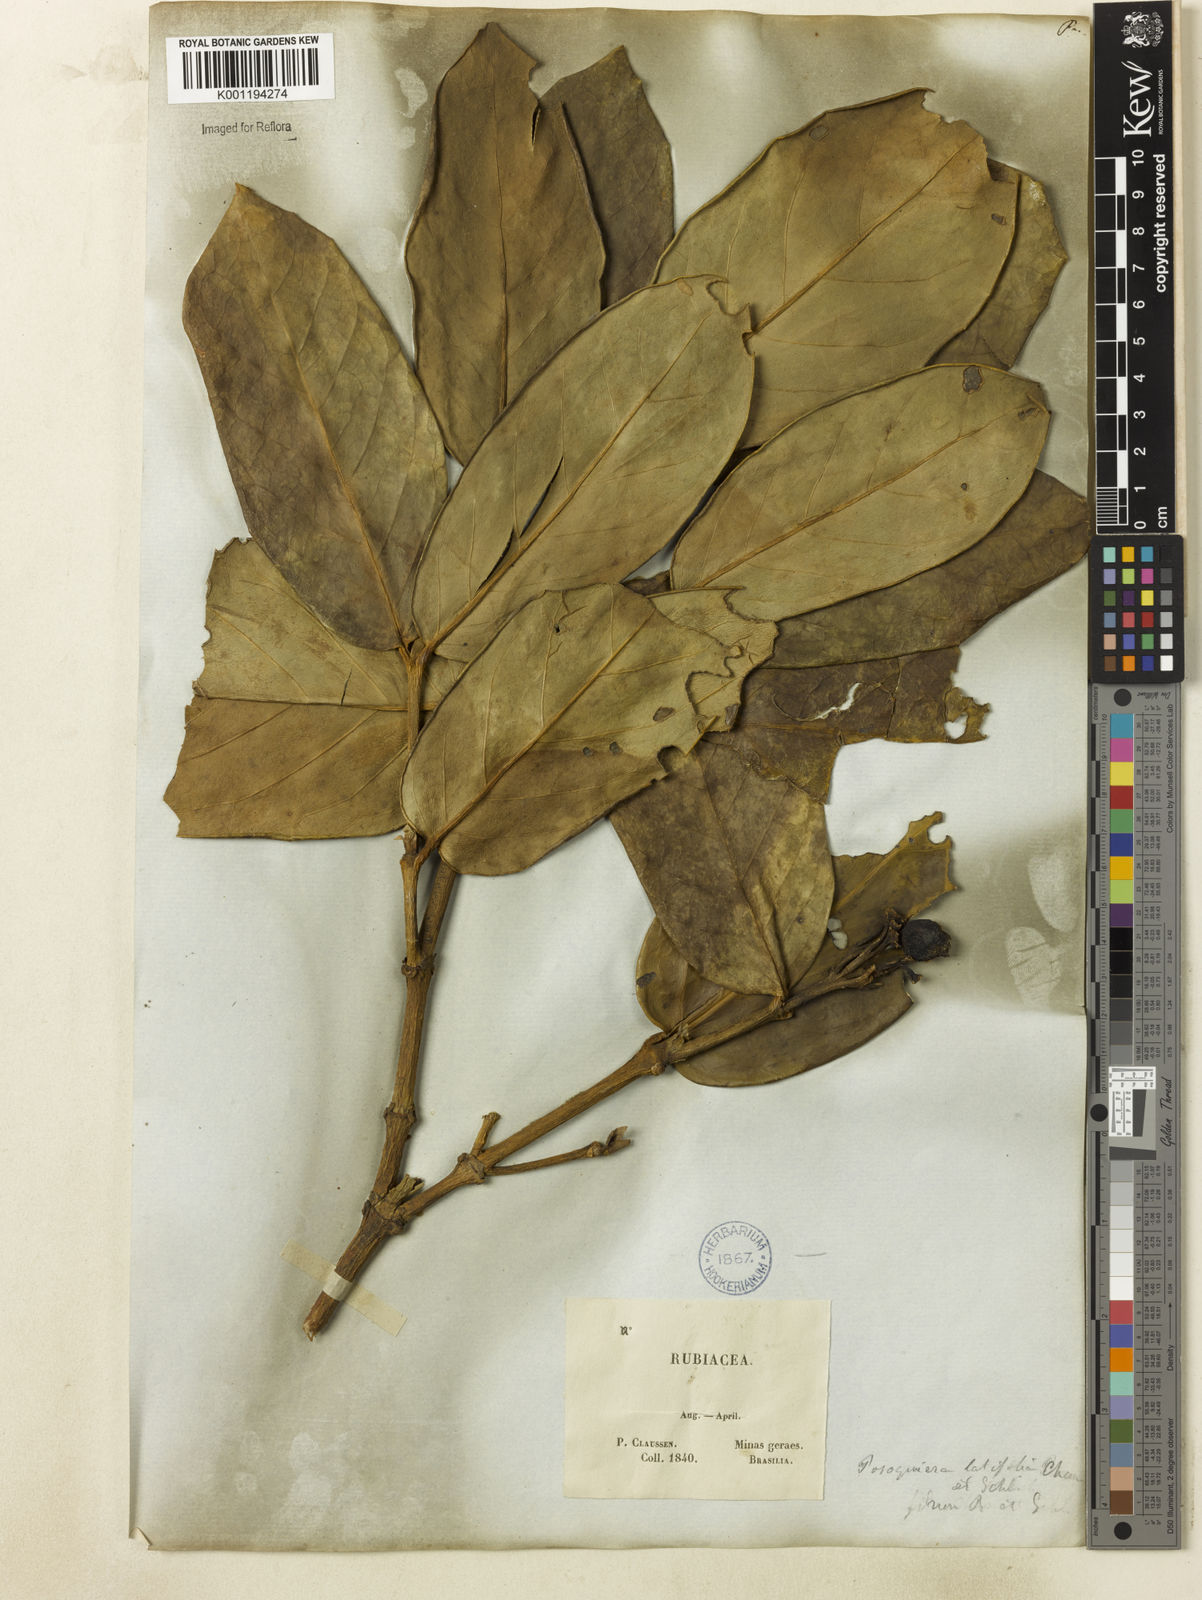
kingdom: Plantae
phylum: Tracheophyta
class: Magnoliopsida
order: Gentianales
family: Rubiaceae
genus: Posoqueria
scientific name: Posoqueria latifolia
